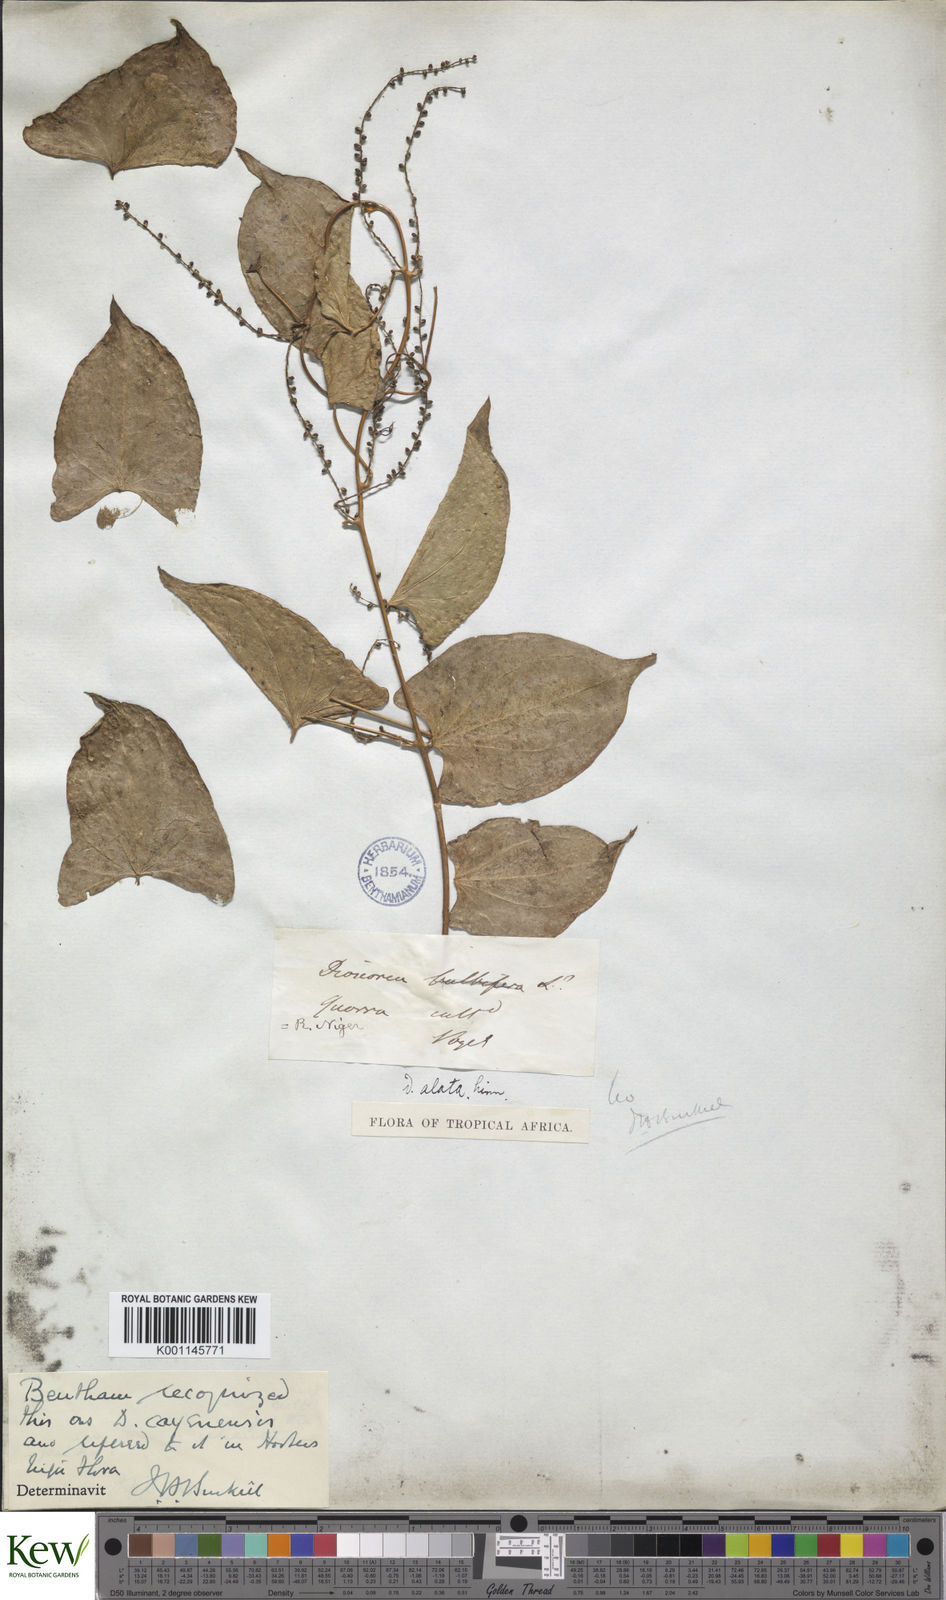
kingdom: Plantae
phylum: Tracheophyta
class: Liliopsida
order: Dioscoreales
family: Dioscoreaceae
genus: Dioscorea
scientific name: Dioscorea cayenensis
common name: Attoto yam
